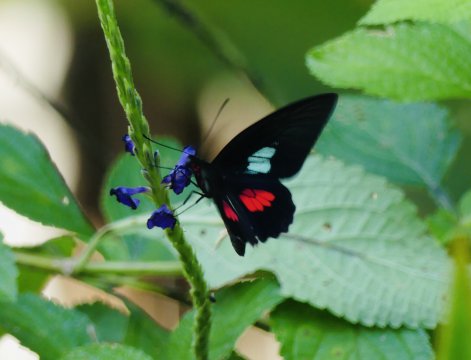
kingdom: Animalia
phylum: Arthropoda
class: Insecta
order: Lepidoptera
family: Papilionidae
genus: Parides
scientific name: Parides eurimedes
